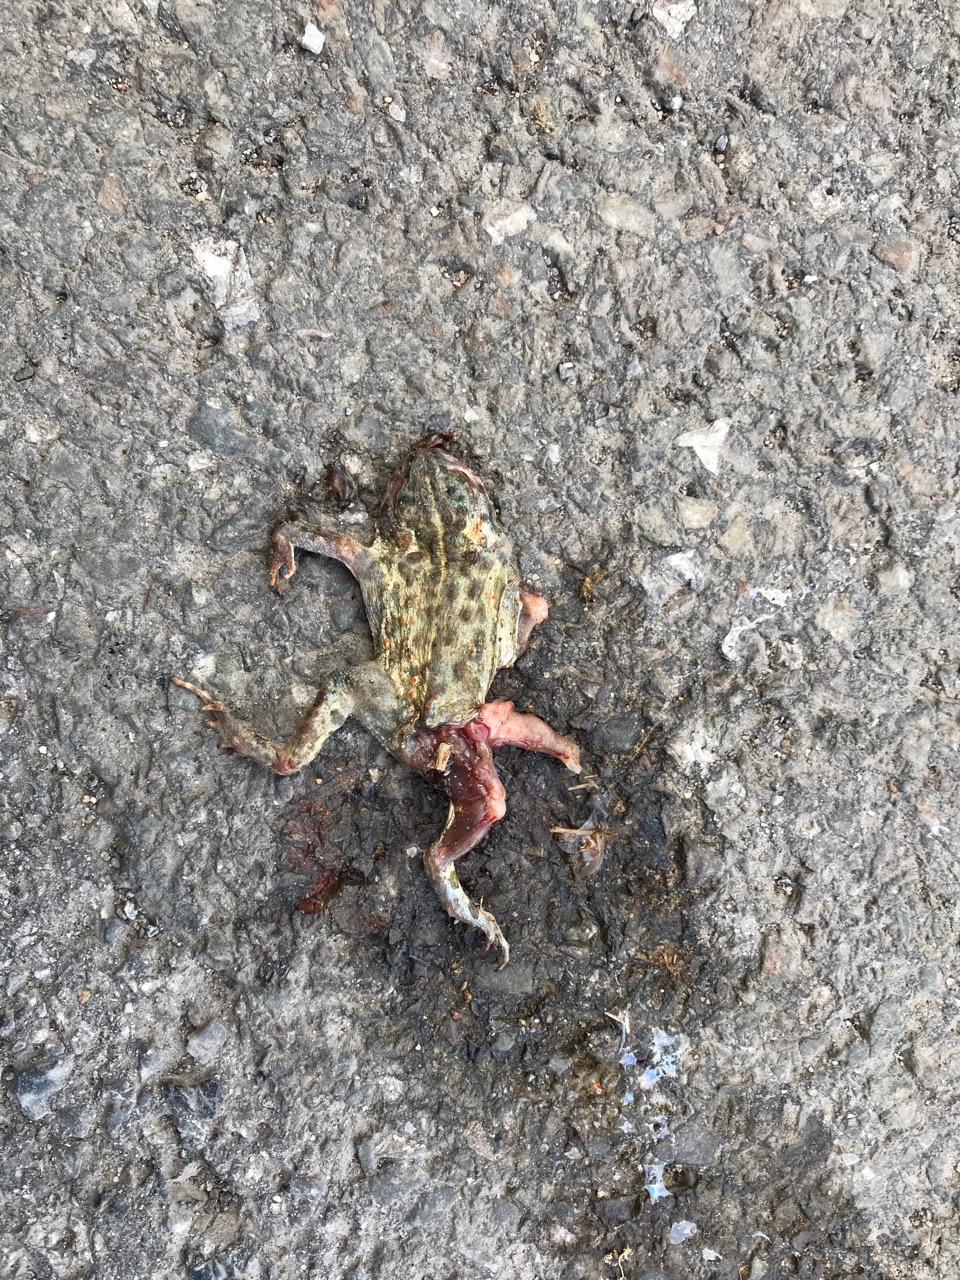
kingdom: Animalia
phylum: Chordata
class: Amphibia
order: Anura
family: Bufonidae
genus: Epidalea
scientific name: Epidalea calamita
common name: Natterjack toad
